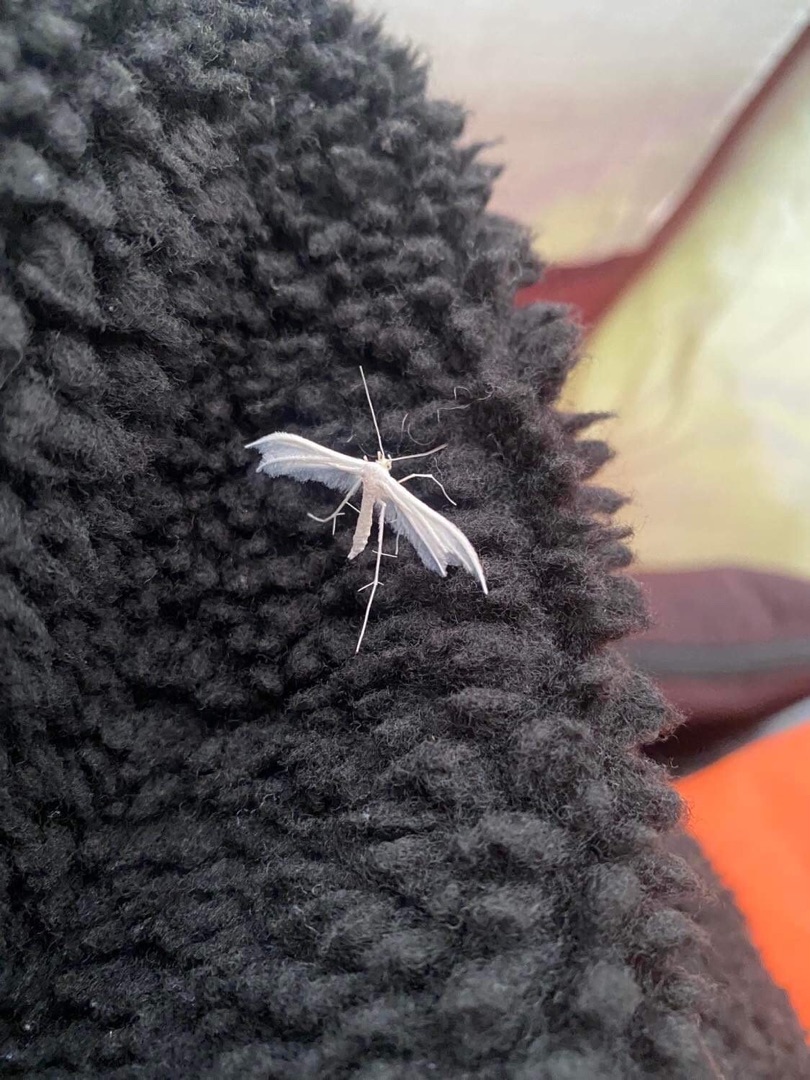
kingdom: Animalia
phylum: Arthropoda
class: Insecta
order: Lepidoptera
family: Pterophoridae
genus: Pterophorus
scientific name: Pterophorus pentadactyla
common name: Hvidt fjermøl
